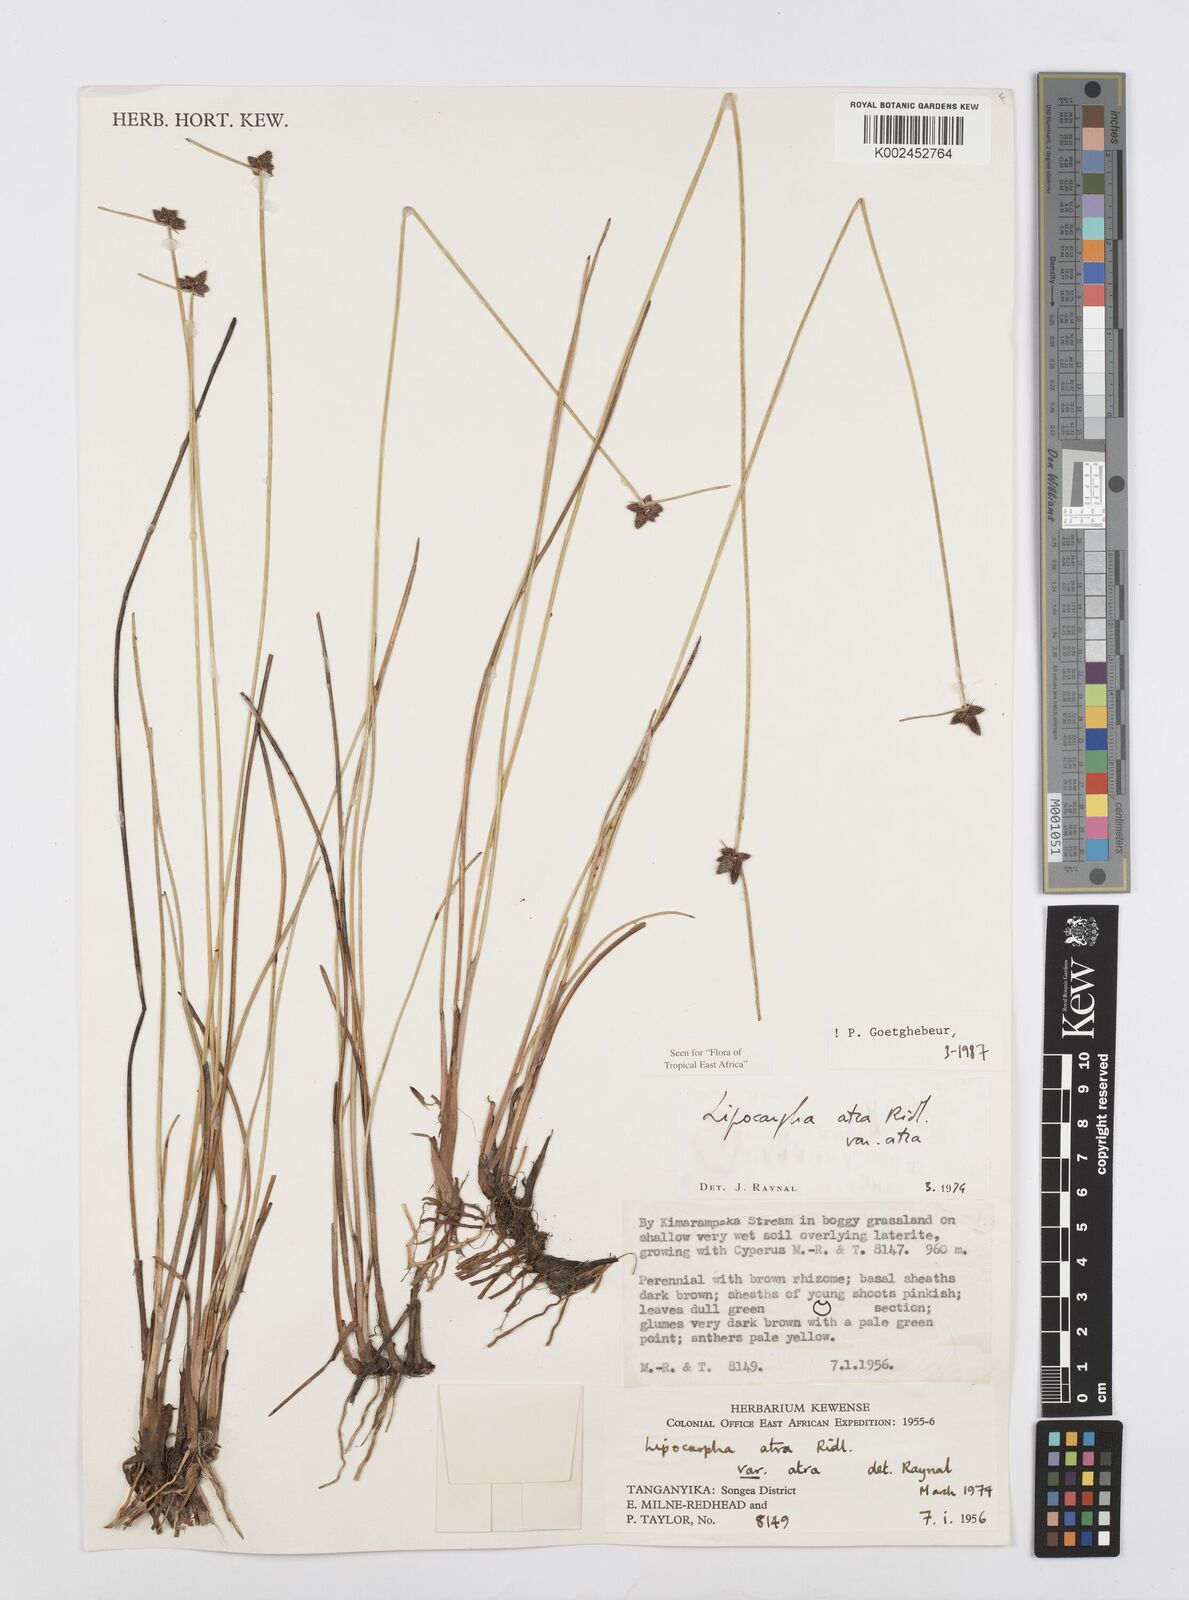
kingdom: Plantae
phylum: Tracheophyta
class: Liliopsida
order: Poales
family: Cyperaceae
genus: Cyperus
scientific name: Cyperus lipoater
